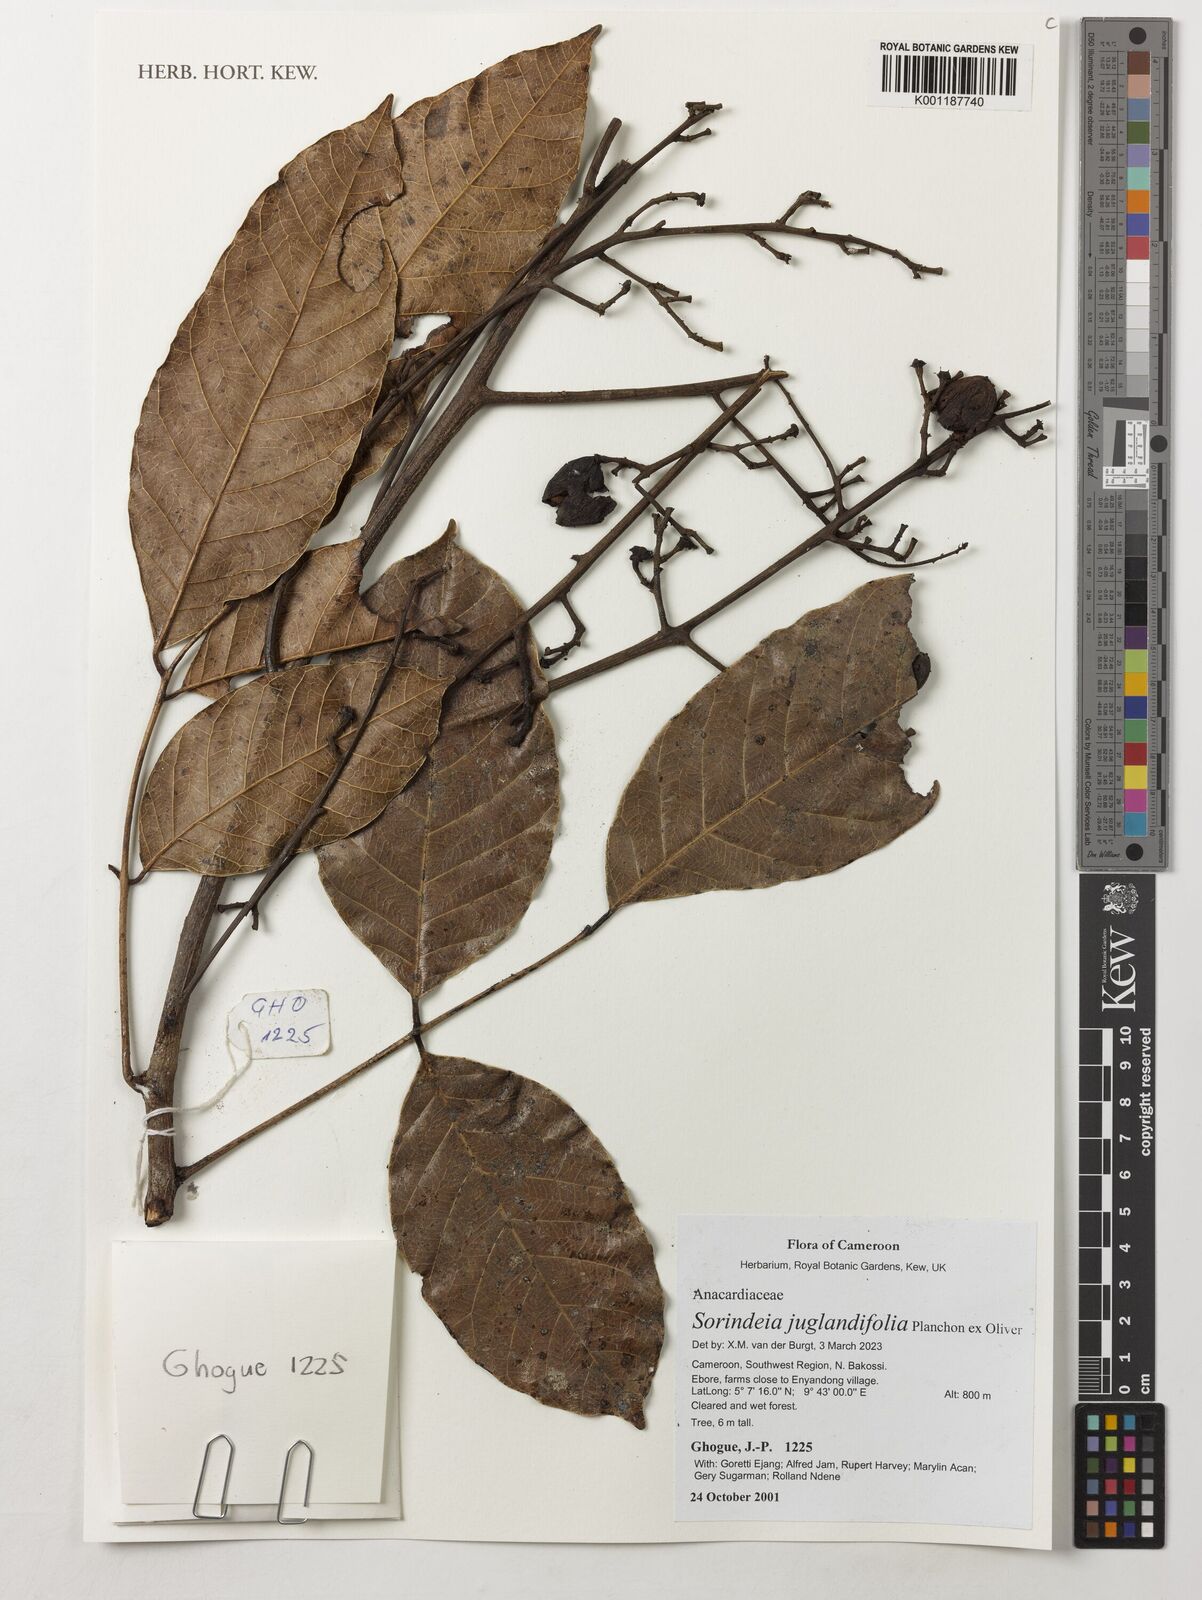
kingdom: Plantae
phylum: Tracheophyta
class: Magnoliopsida
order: Sapindales
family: Anacardiaceae
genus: Sorindeia
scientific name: Sorindeia juglandifolia
